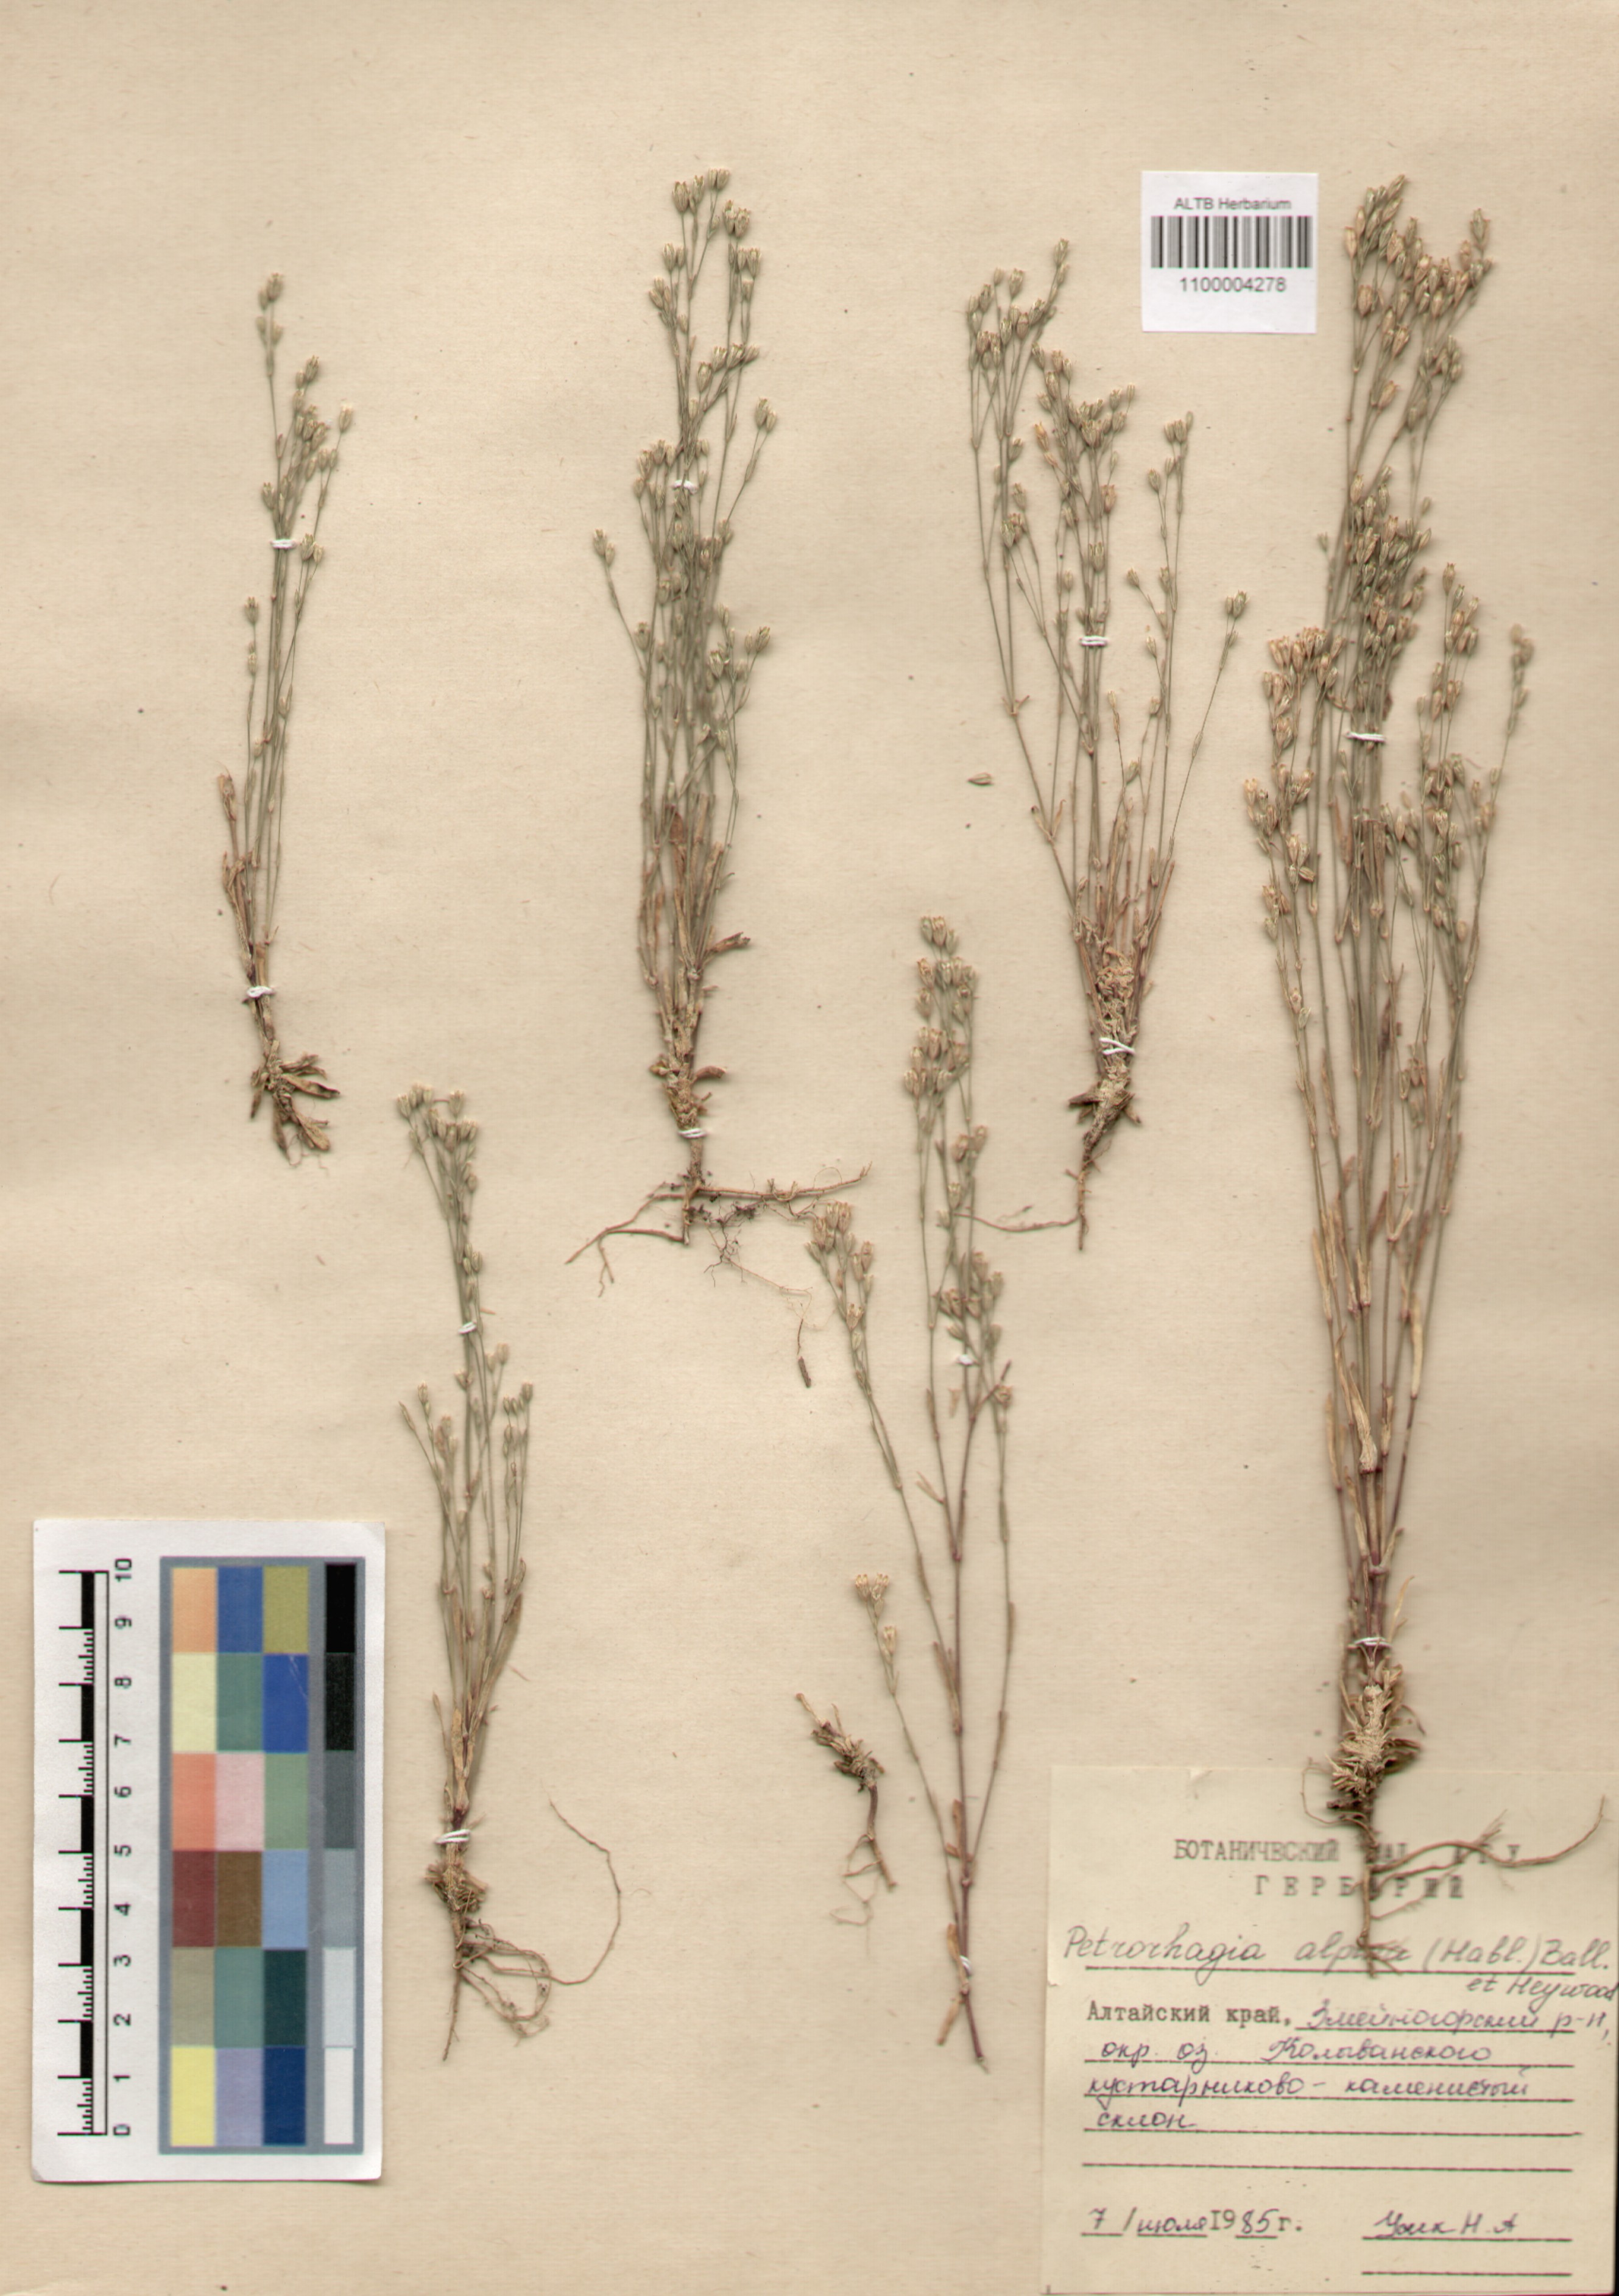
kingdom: Plantae
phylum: Tracheophyta
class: Magnoliopsida
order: Caryophyllales
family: Caryophyllaceae
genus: Petrorhagia
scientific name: Petrorhagia alpina
